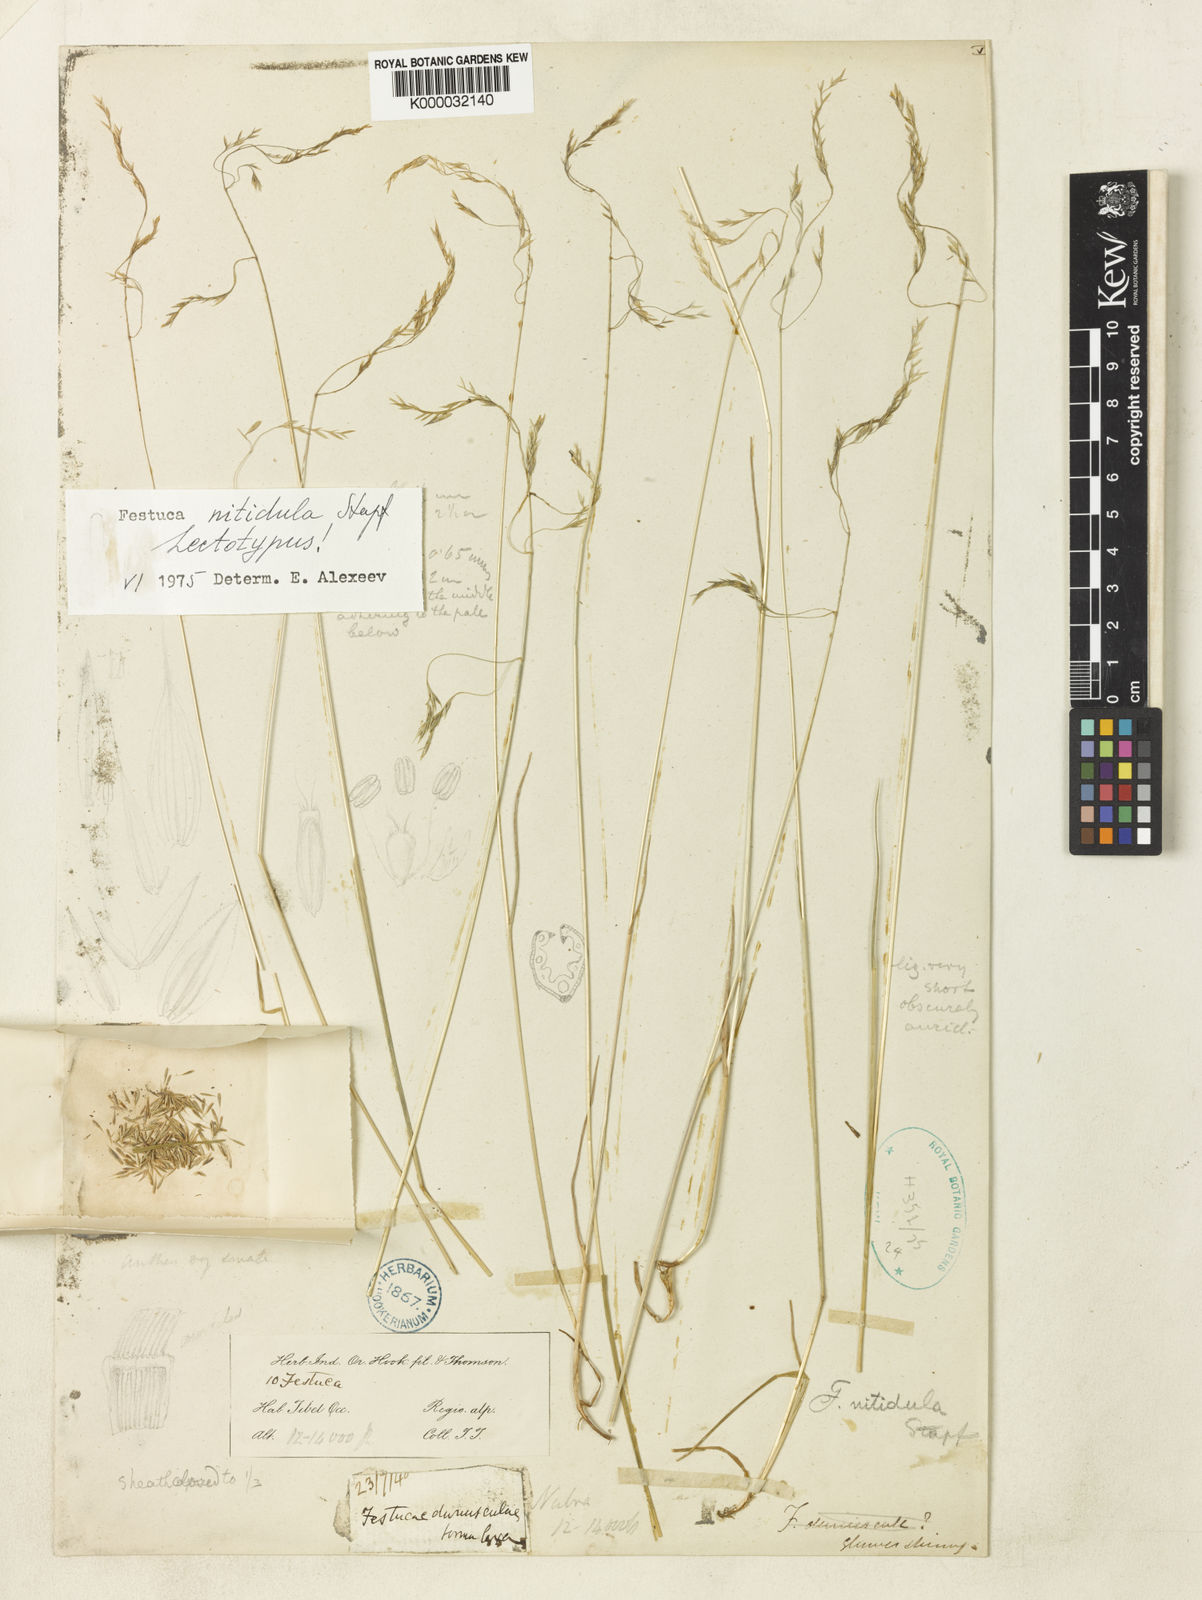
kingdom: Plantae
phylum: Tracheophyta
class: Liliopsida
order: Poales
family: Poaceae
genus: Festuca
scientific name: Festuca nitidula
